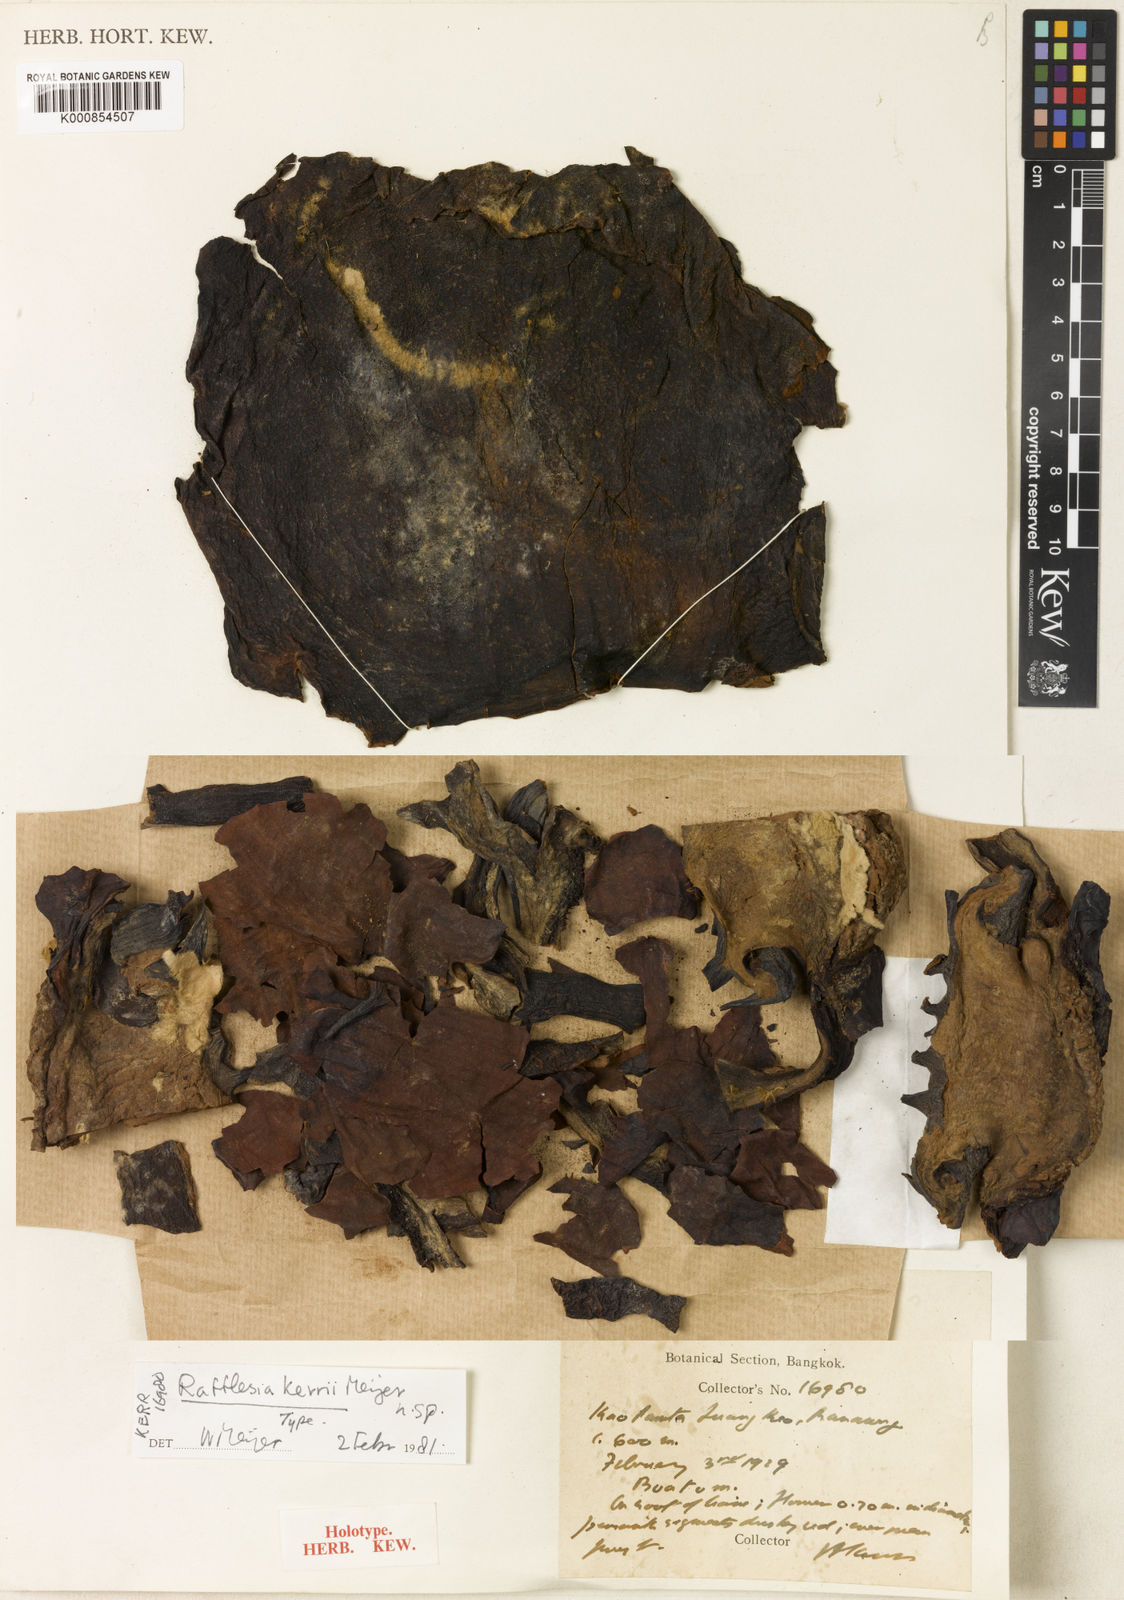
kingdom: Plantae
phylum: Tracheophyta
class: Magnoliopsida
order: Malpighiales
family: Rafflesiaceae
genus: Rafflesia
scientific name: Rafflesia kerrii
